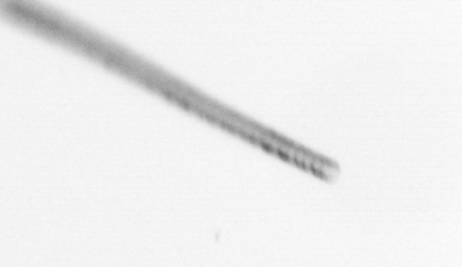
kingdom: Chromista
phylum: Ochrophyta
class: Bacillariophyceae
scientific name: Bacillariophyceae
